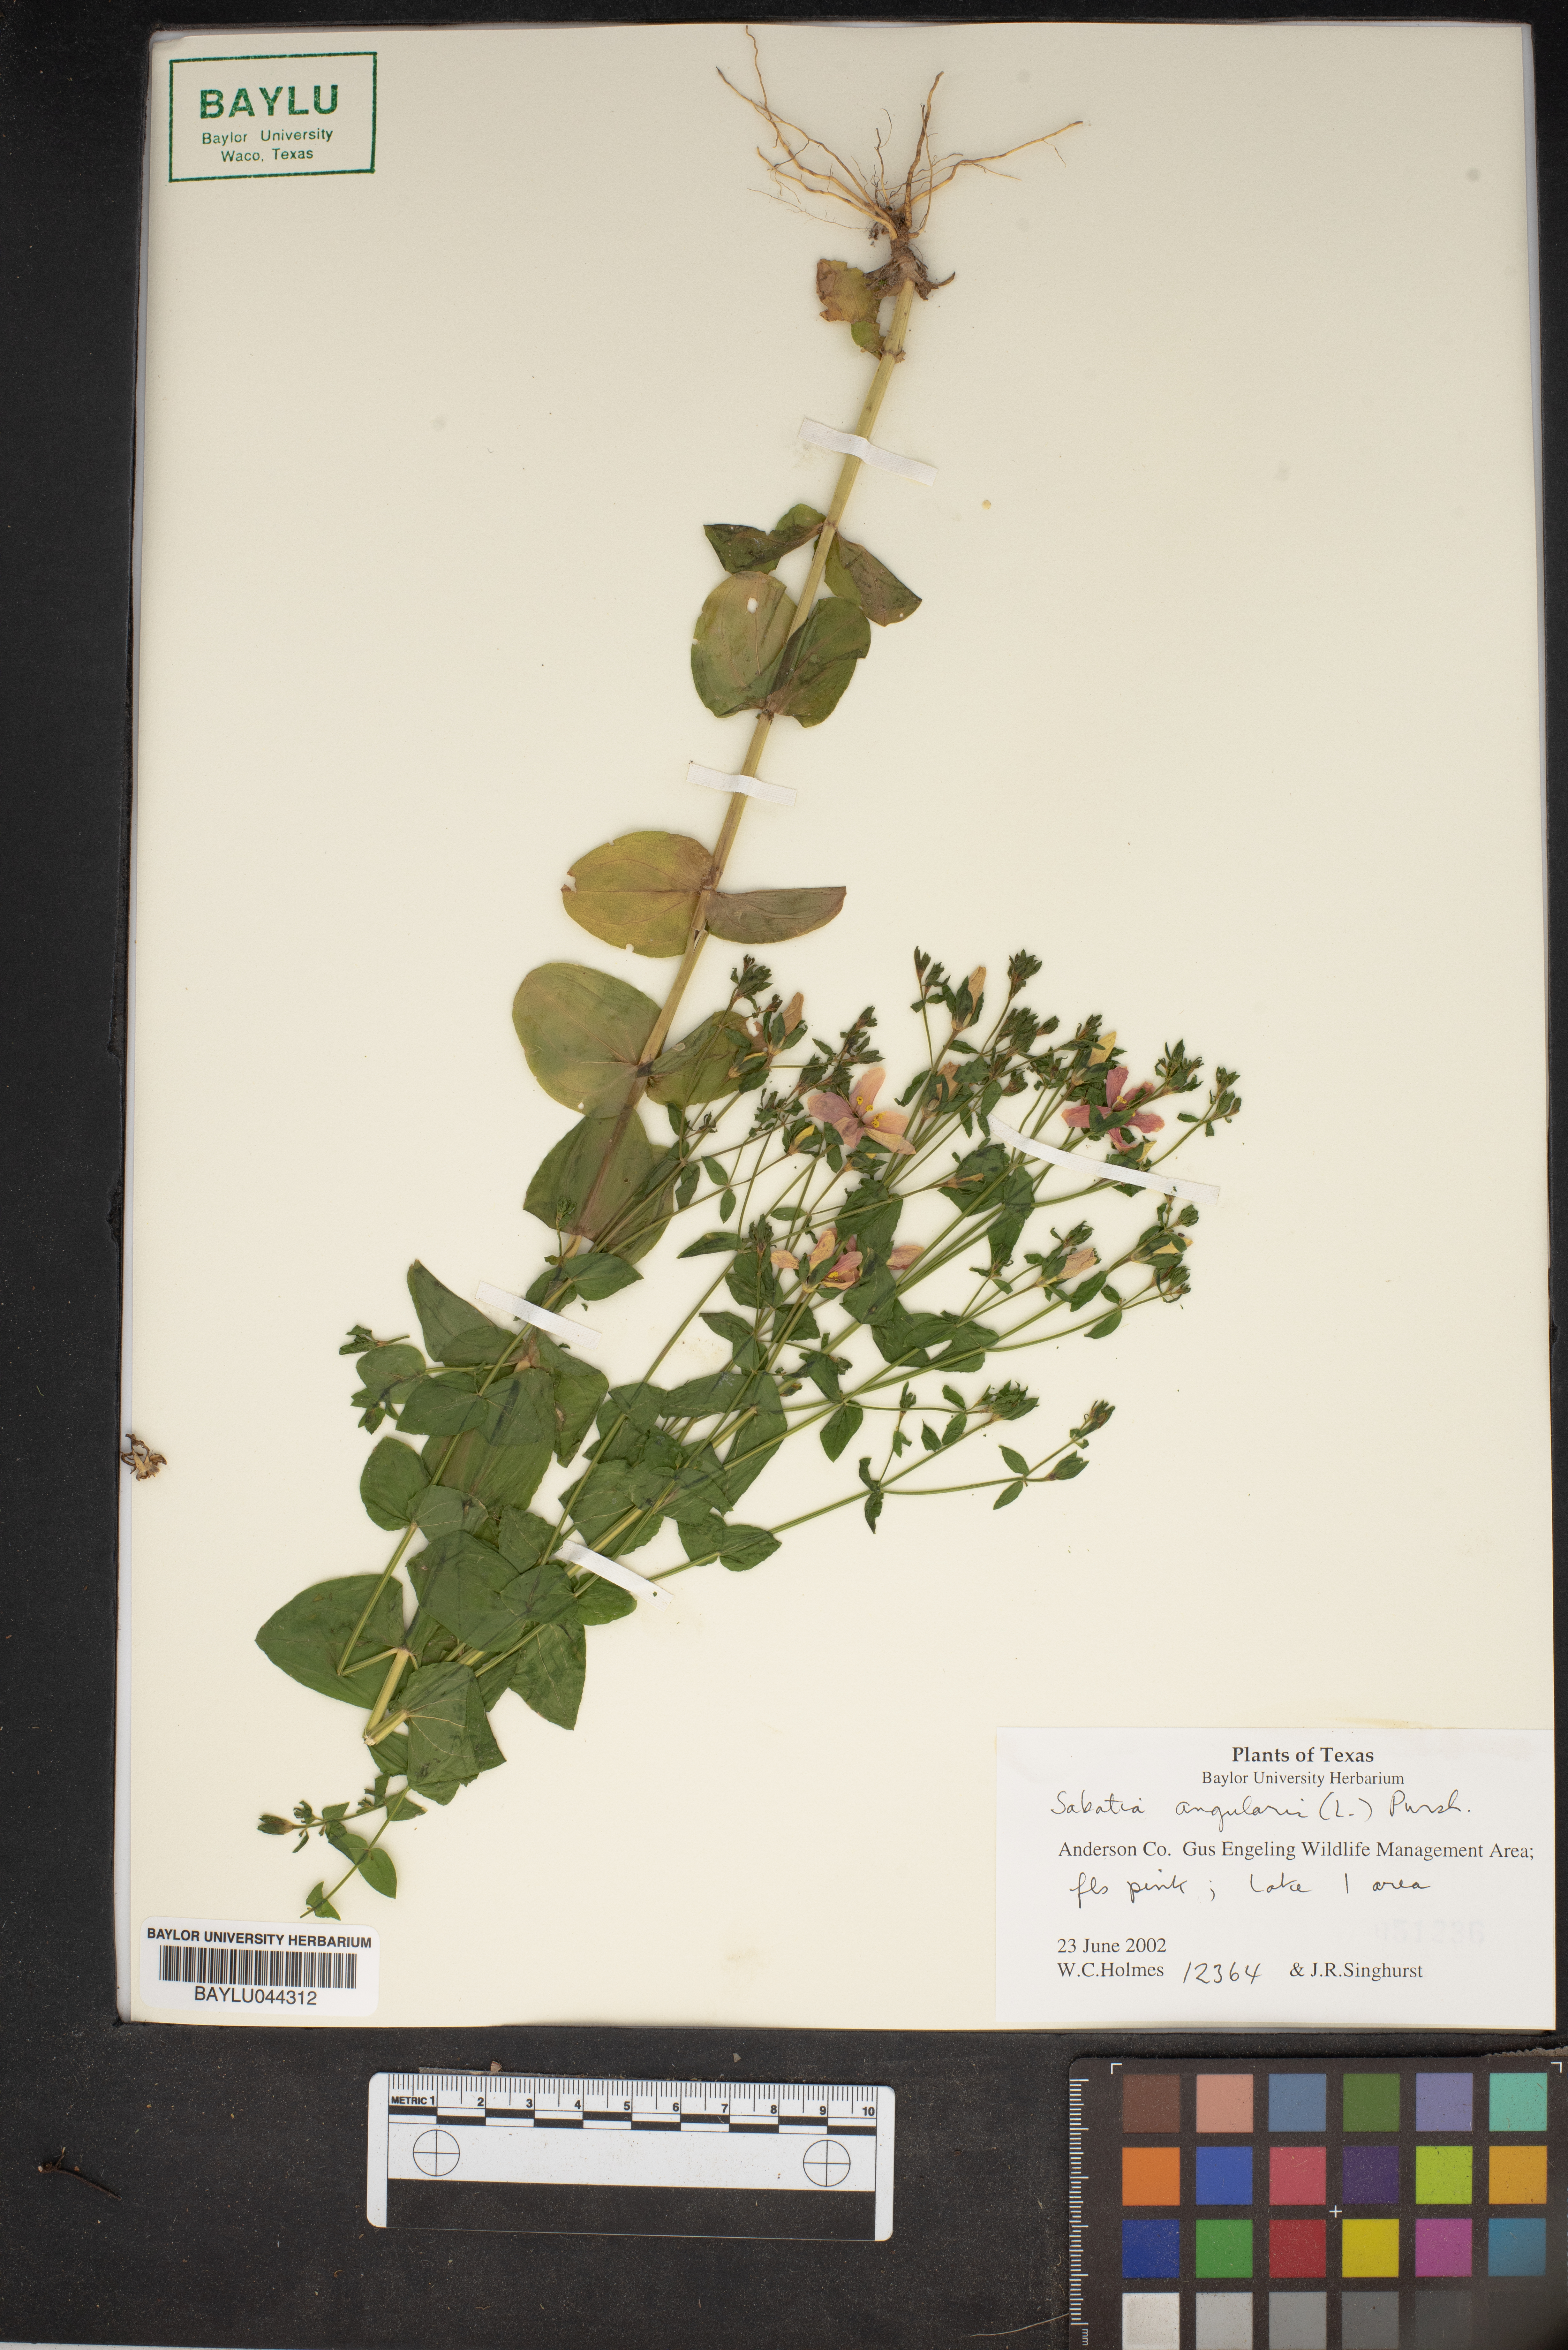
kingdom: Plantae
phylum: Tracheophyta
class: Magnoliopsida
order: Gentianales
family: Gentianaceae
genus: Sabatia
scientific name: Sabatia angularis
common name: Rose-pink
